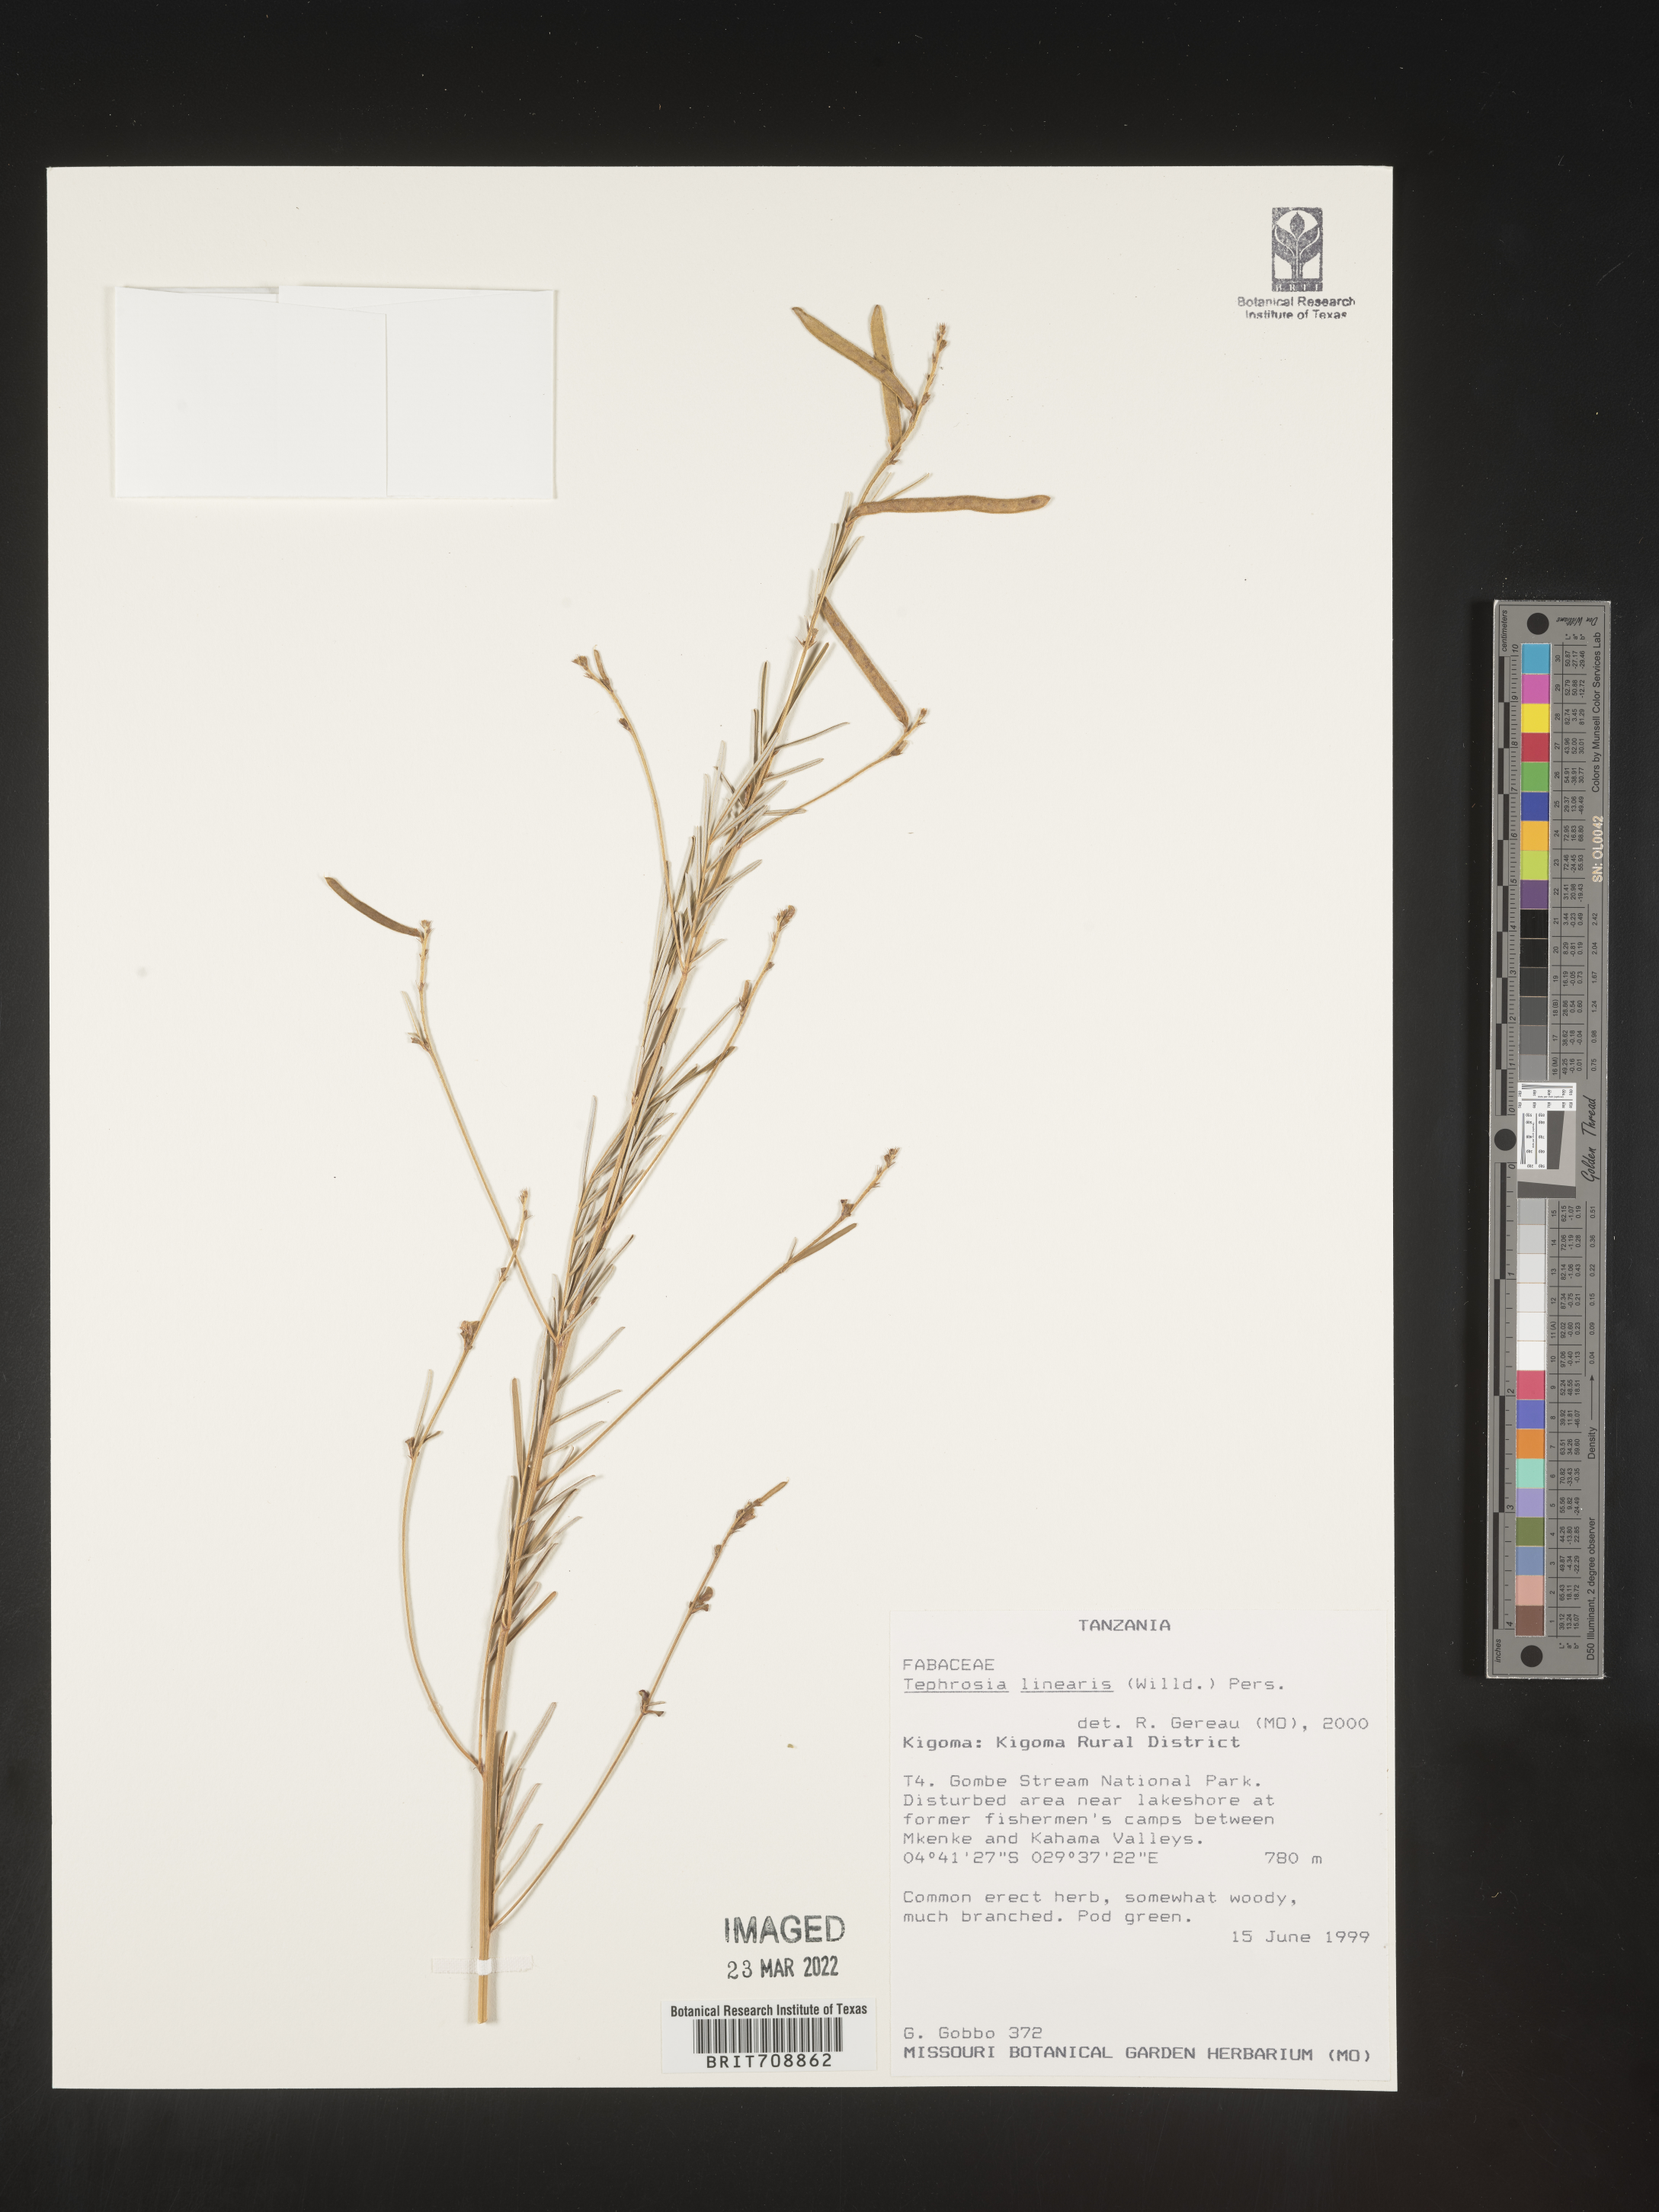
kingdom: Plantae
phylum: Tracheophyta
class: Magnoliopsida
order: Fabales
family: Fabaceae
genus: Tephrosia
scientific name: Tephrosia
